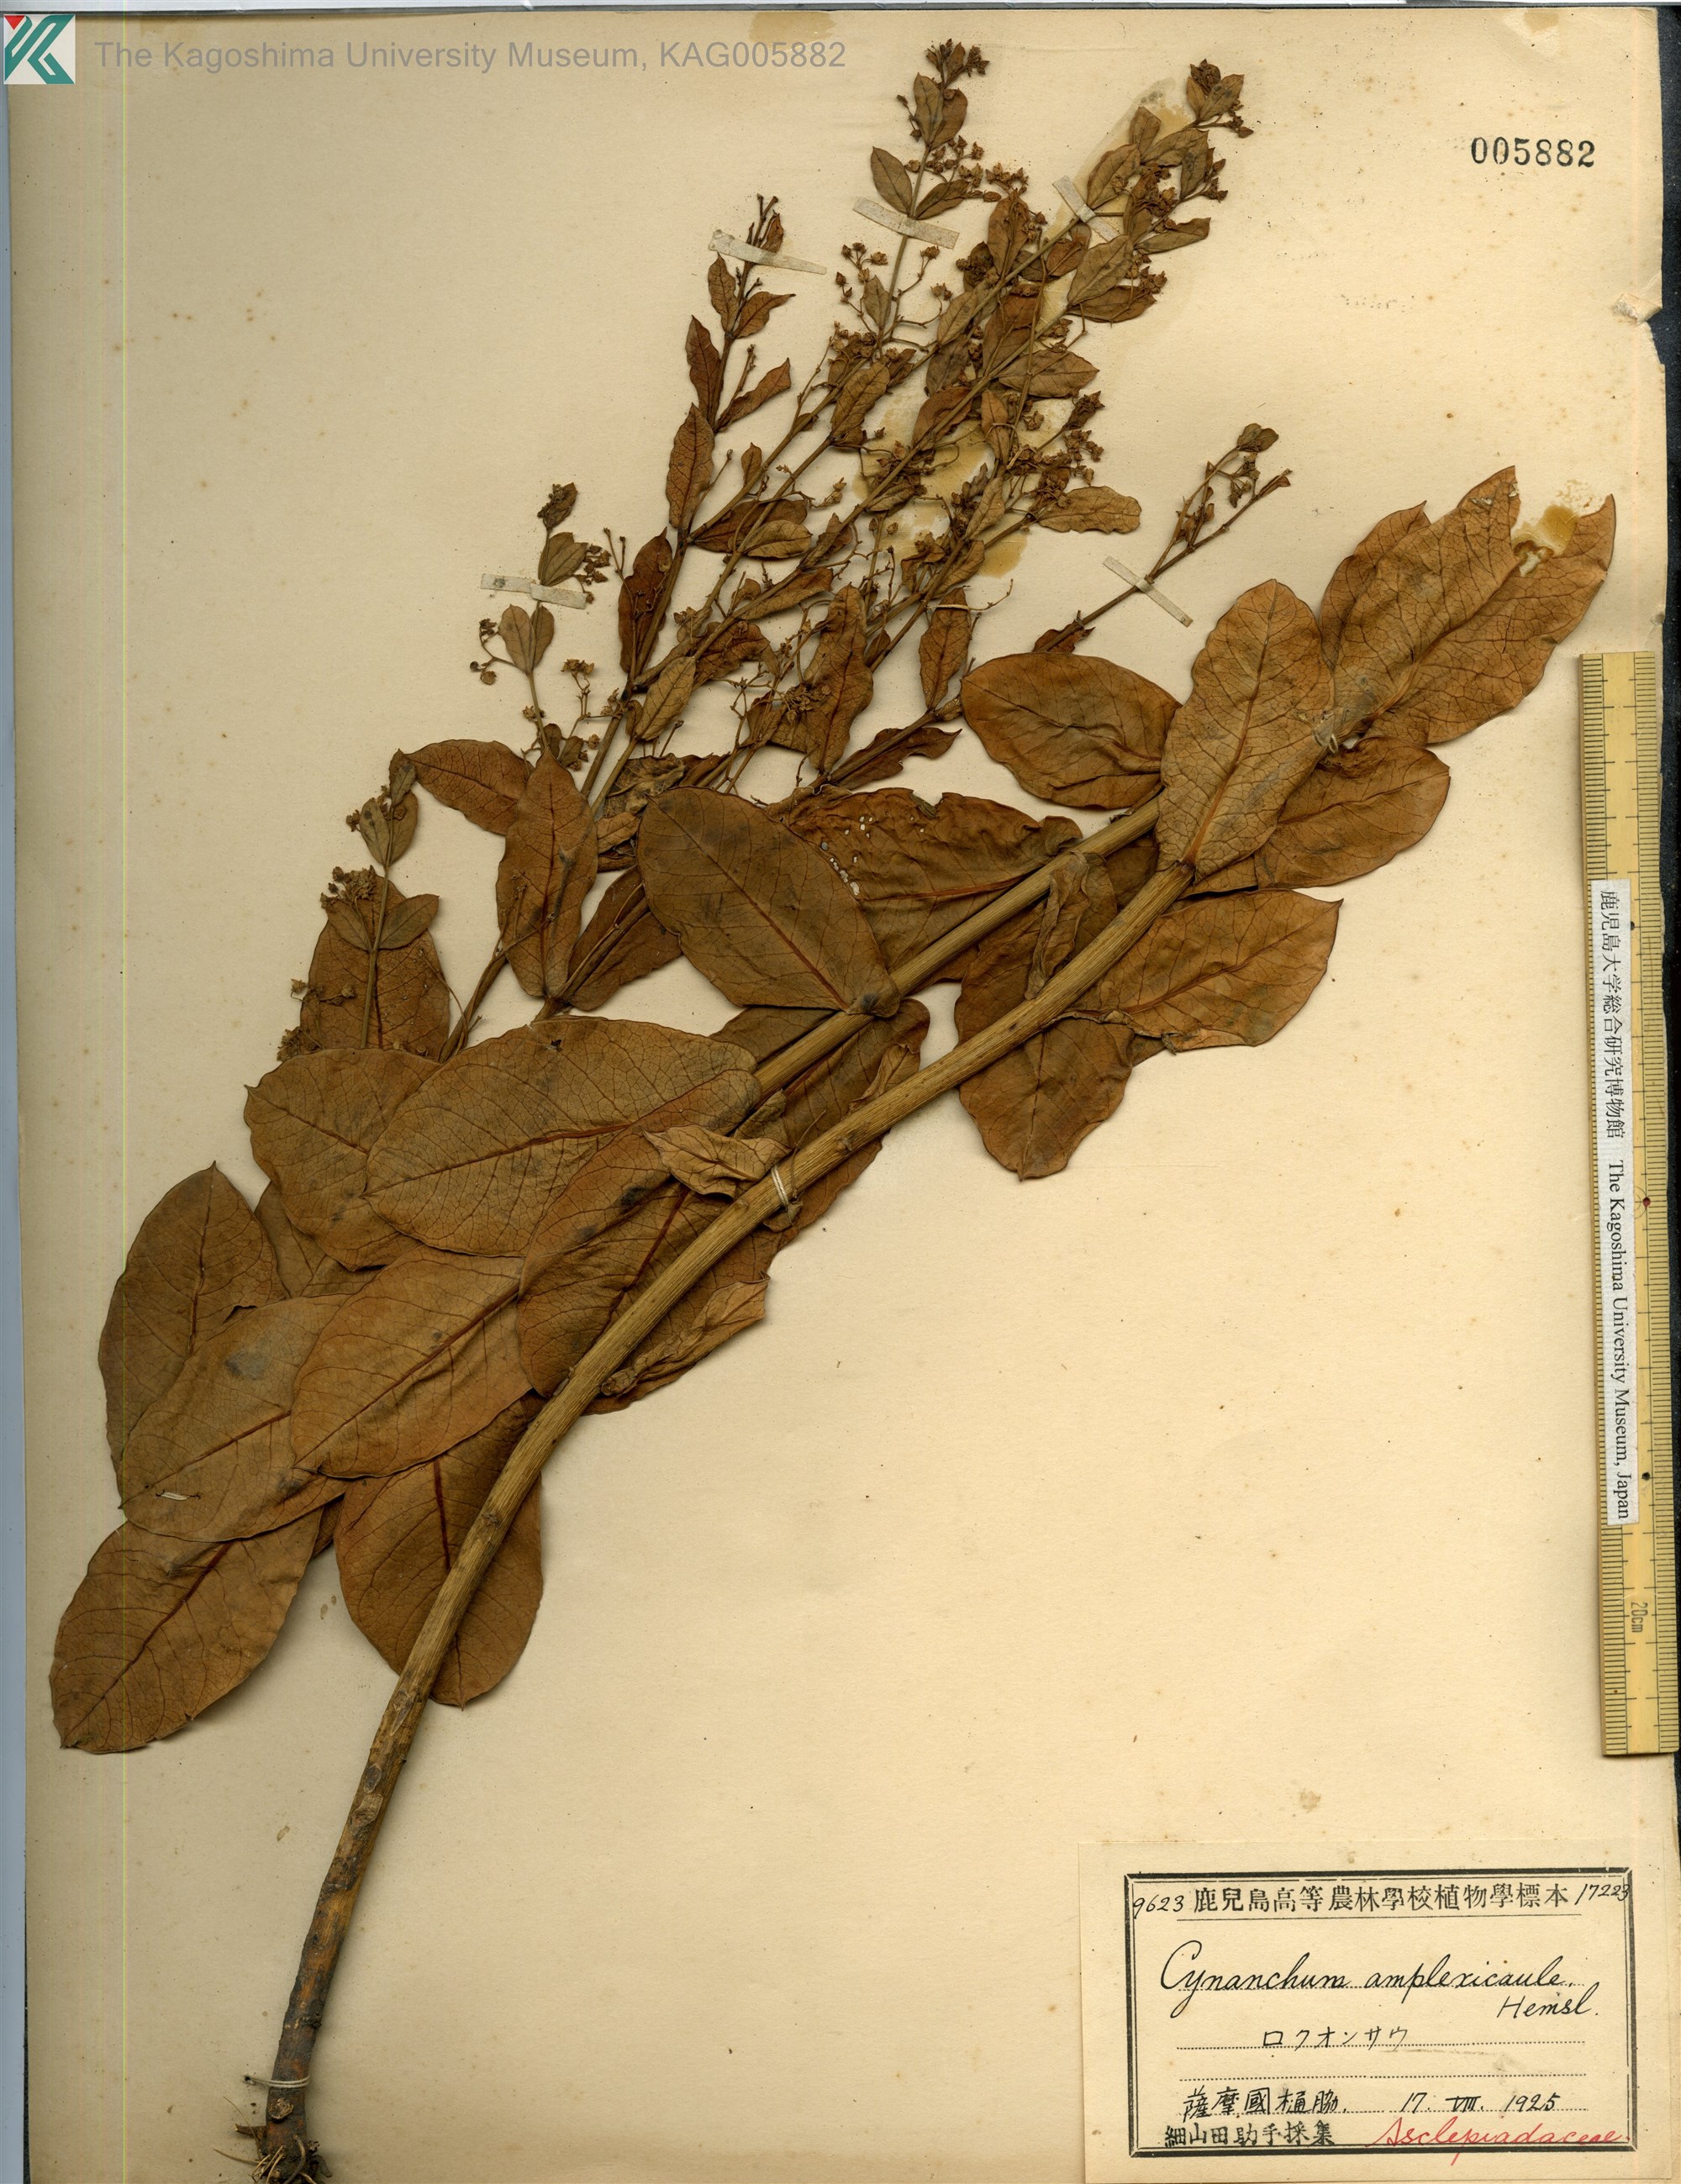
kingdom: Plantae
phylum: Tracheophyta
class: Magnoliopsida
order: Gentianales
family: Apocynaceae
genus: Vincetoxicum
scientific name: Vincetoxicum amplexicaule
